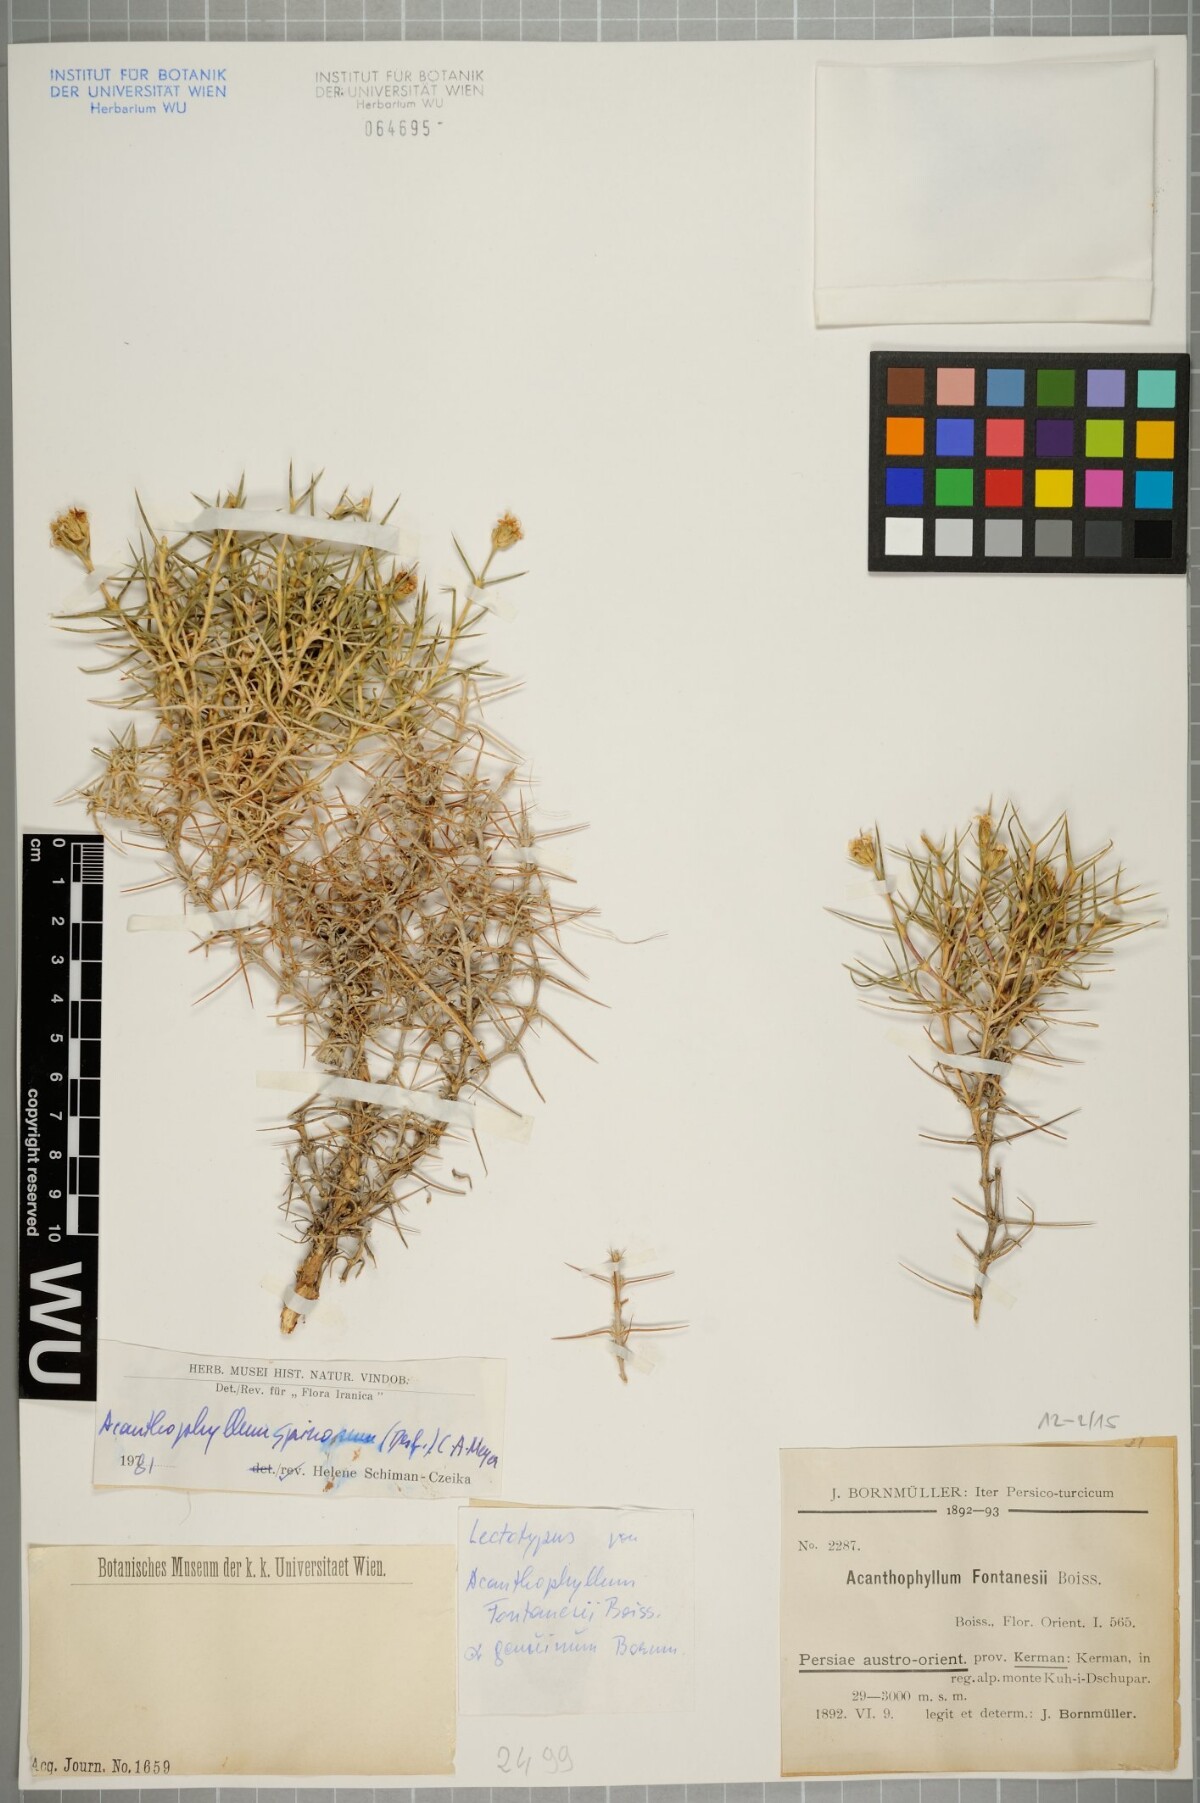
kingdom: Plantae
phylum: Tracheophyta
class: Magnoliopsida
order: Caryophyllales
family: Caryophyllaceae
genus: Acanthophyllum
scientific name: Acanthophyllum spinosum
